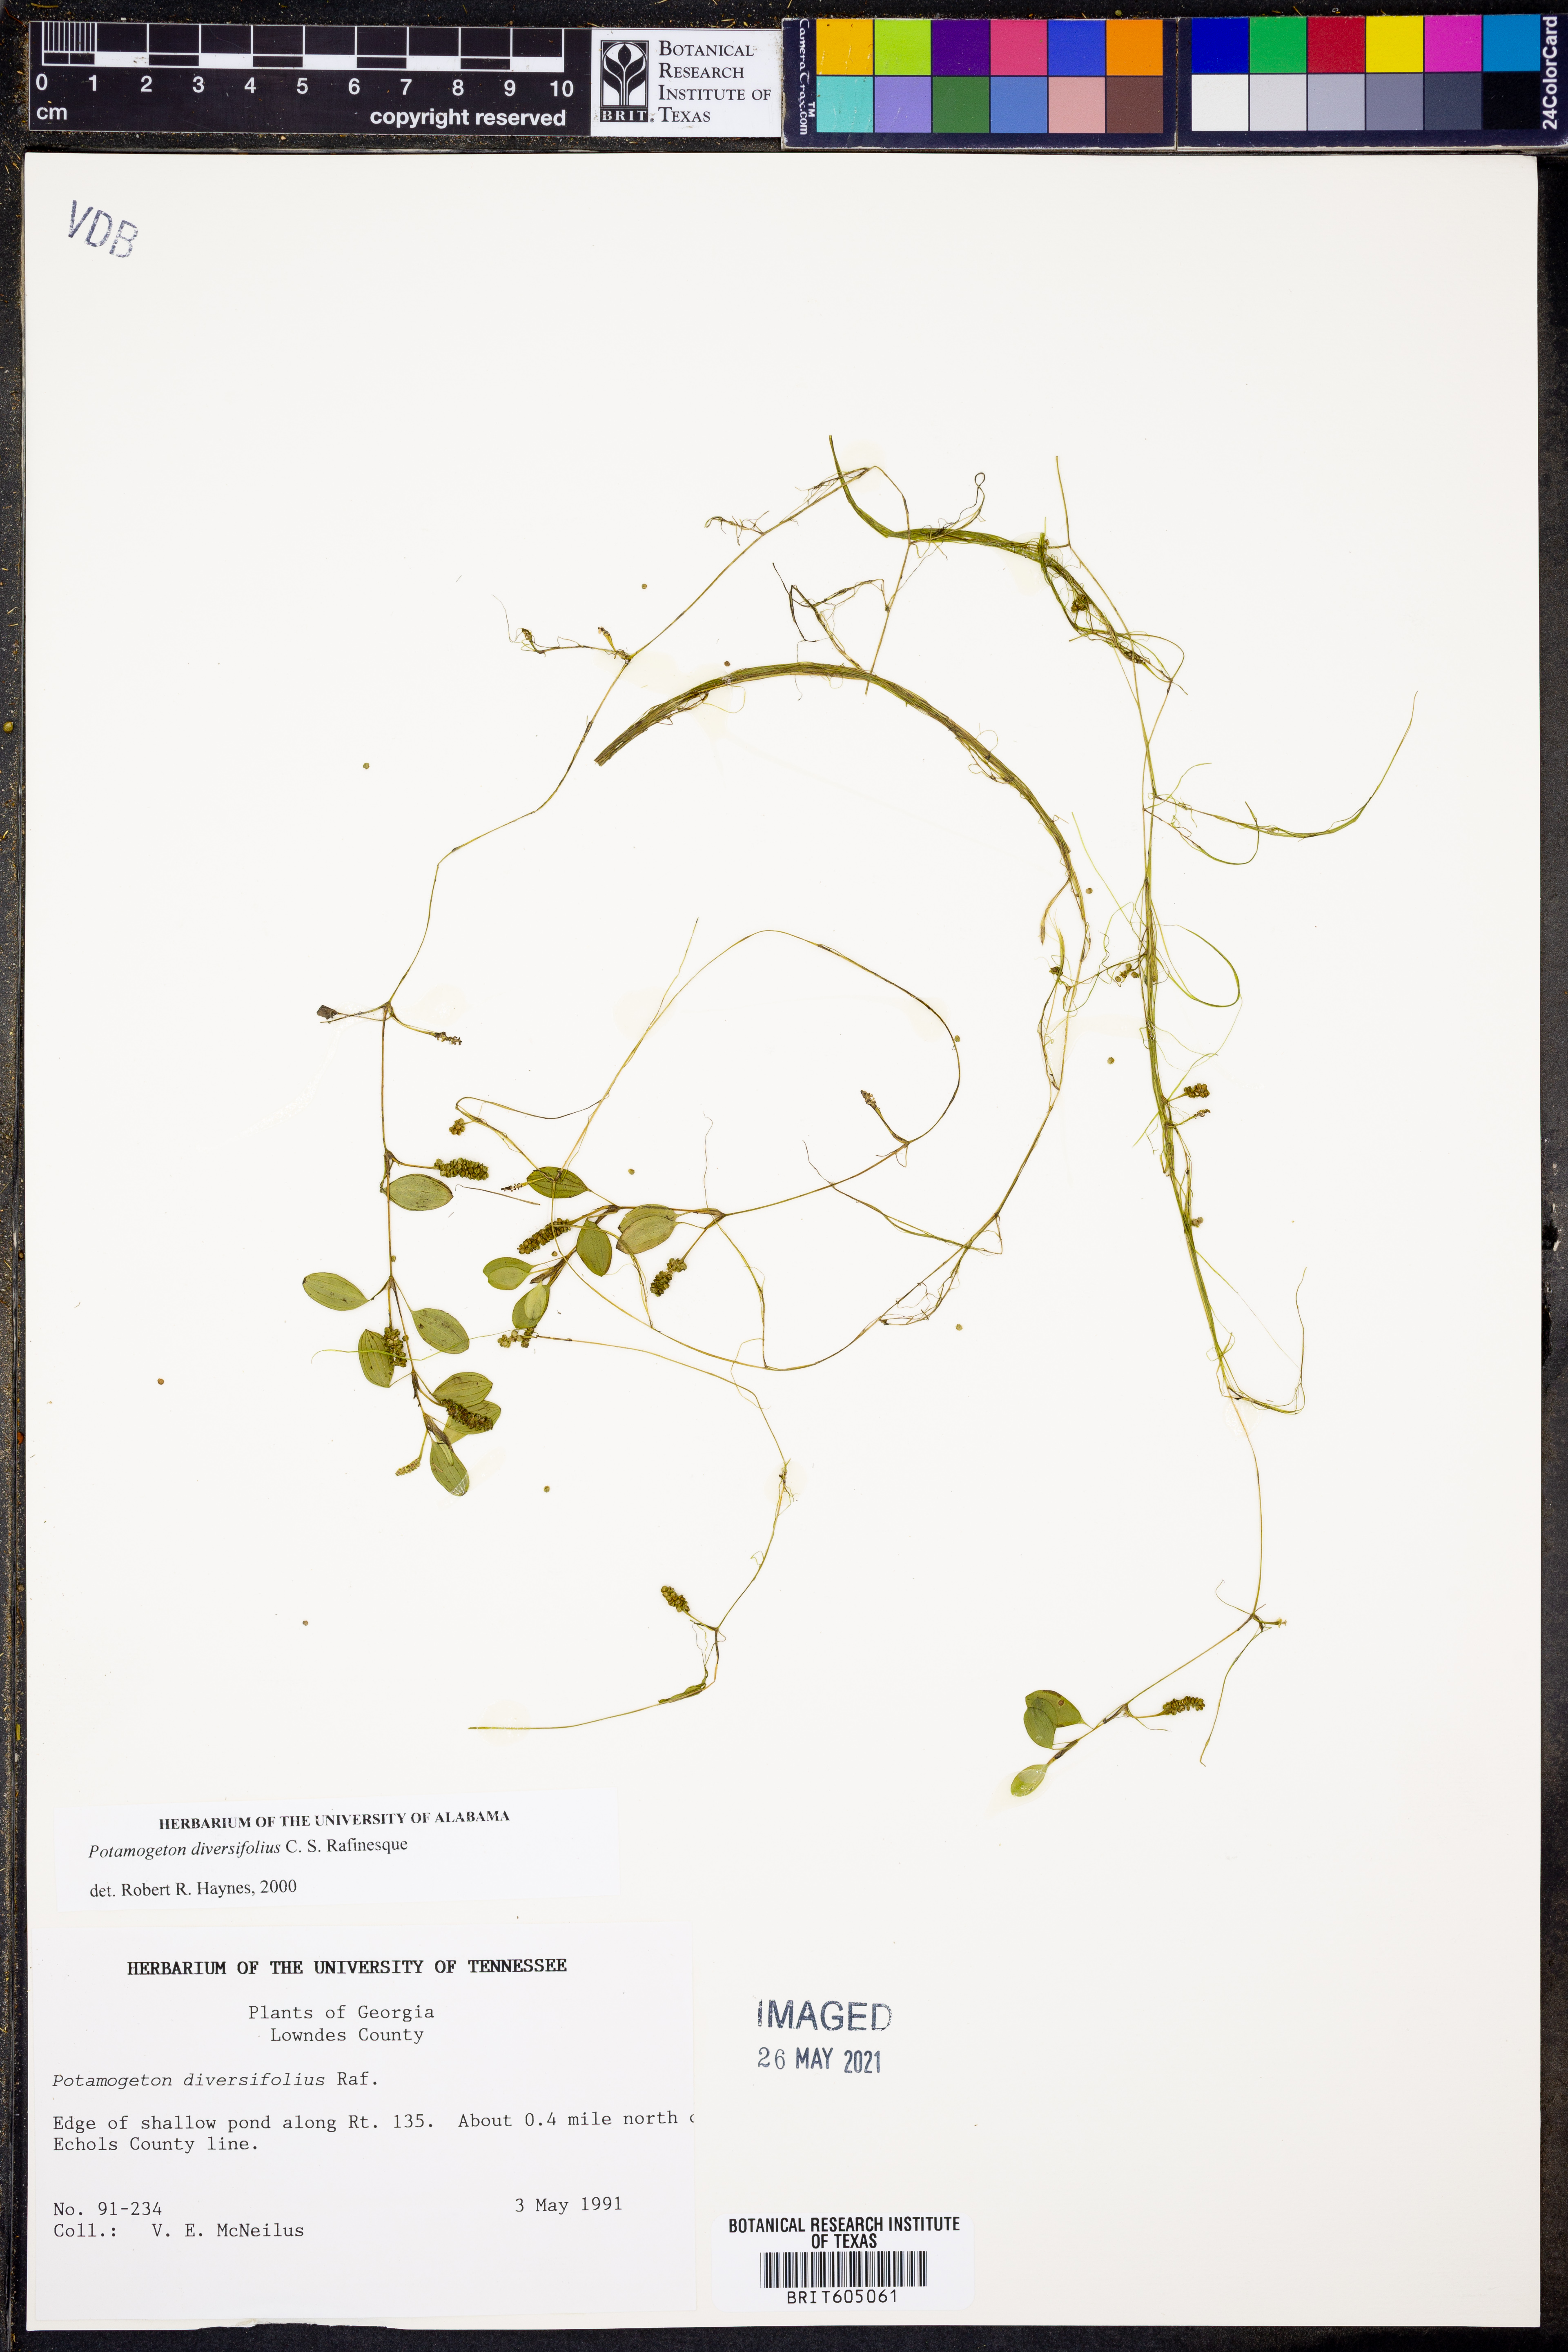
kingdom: Plantae
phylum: Tracheophyta
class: Liliopsida
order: Alismatales
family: Potamogetonaceae
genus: Potamogeton
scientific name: Potamogeton diversifolius
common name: Water-thread pondweed
